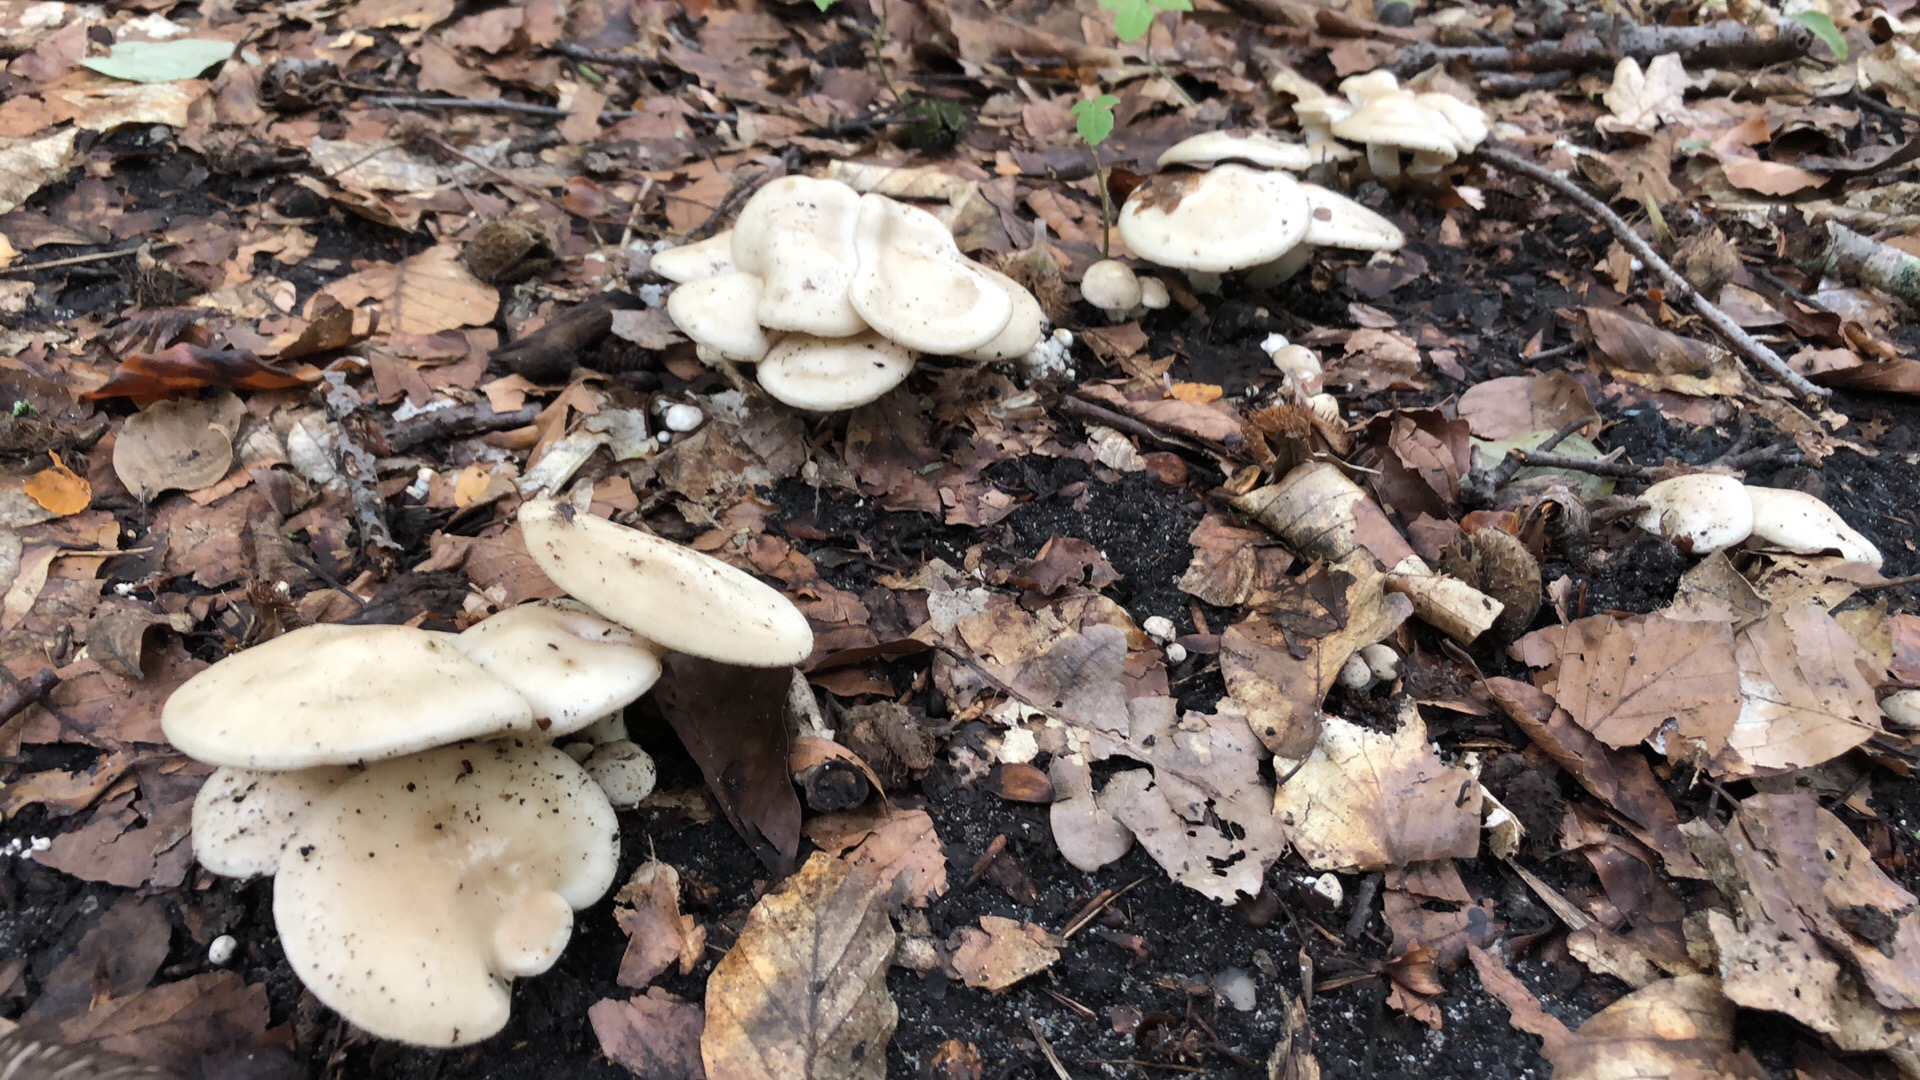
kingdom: Fungi
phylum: Basidiomycota
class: Agaricomycetes
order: Agaricales
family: Tricholomataceae
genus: Leucocybe
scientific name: Leucocybe connata
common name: knippe-tragthat
